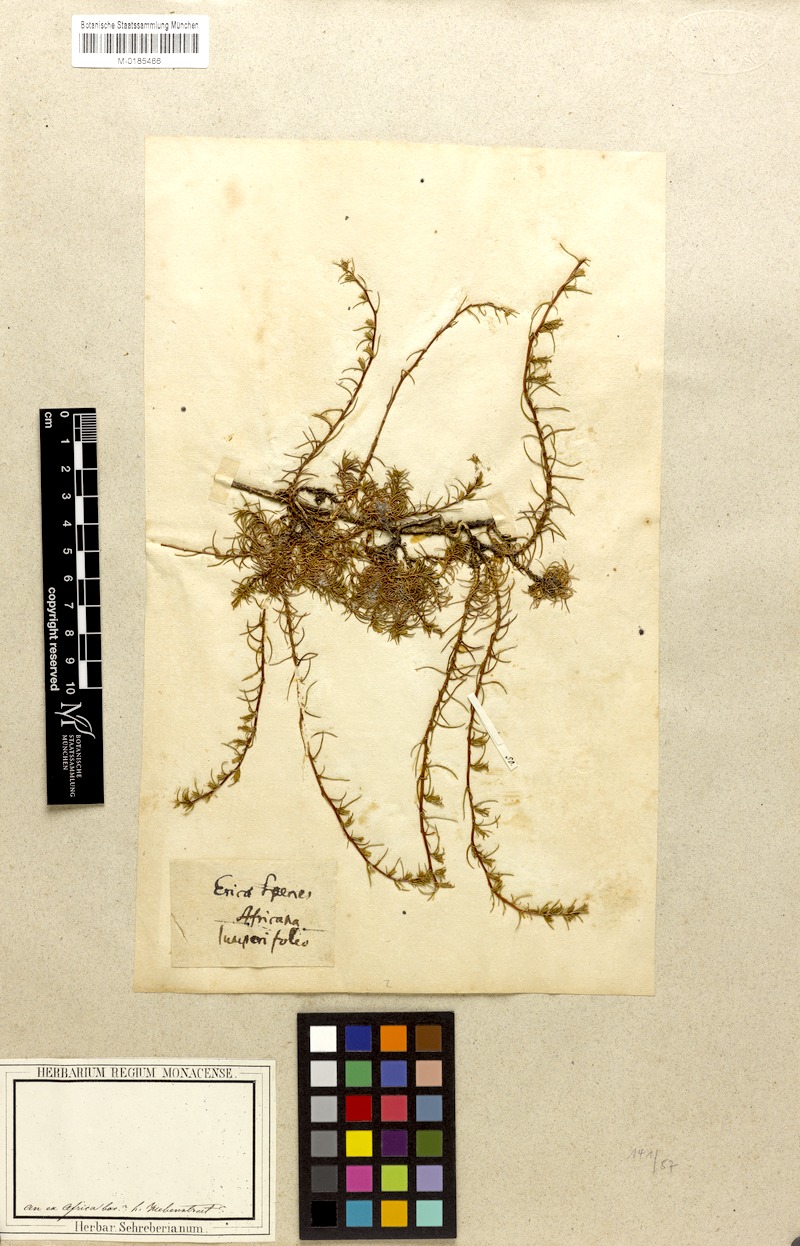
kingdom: Plantae
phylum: Tracheophyta
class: Magnoliopsida
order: Asterales
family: Campanulaceae
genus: Wahlenbergia
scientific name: Wahlenbergia subulata
